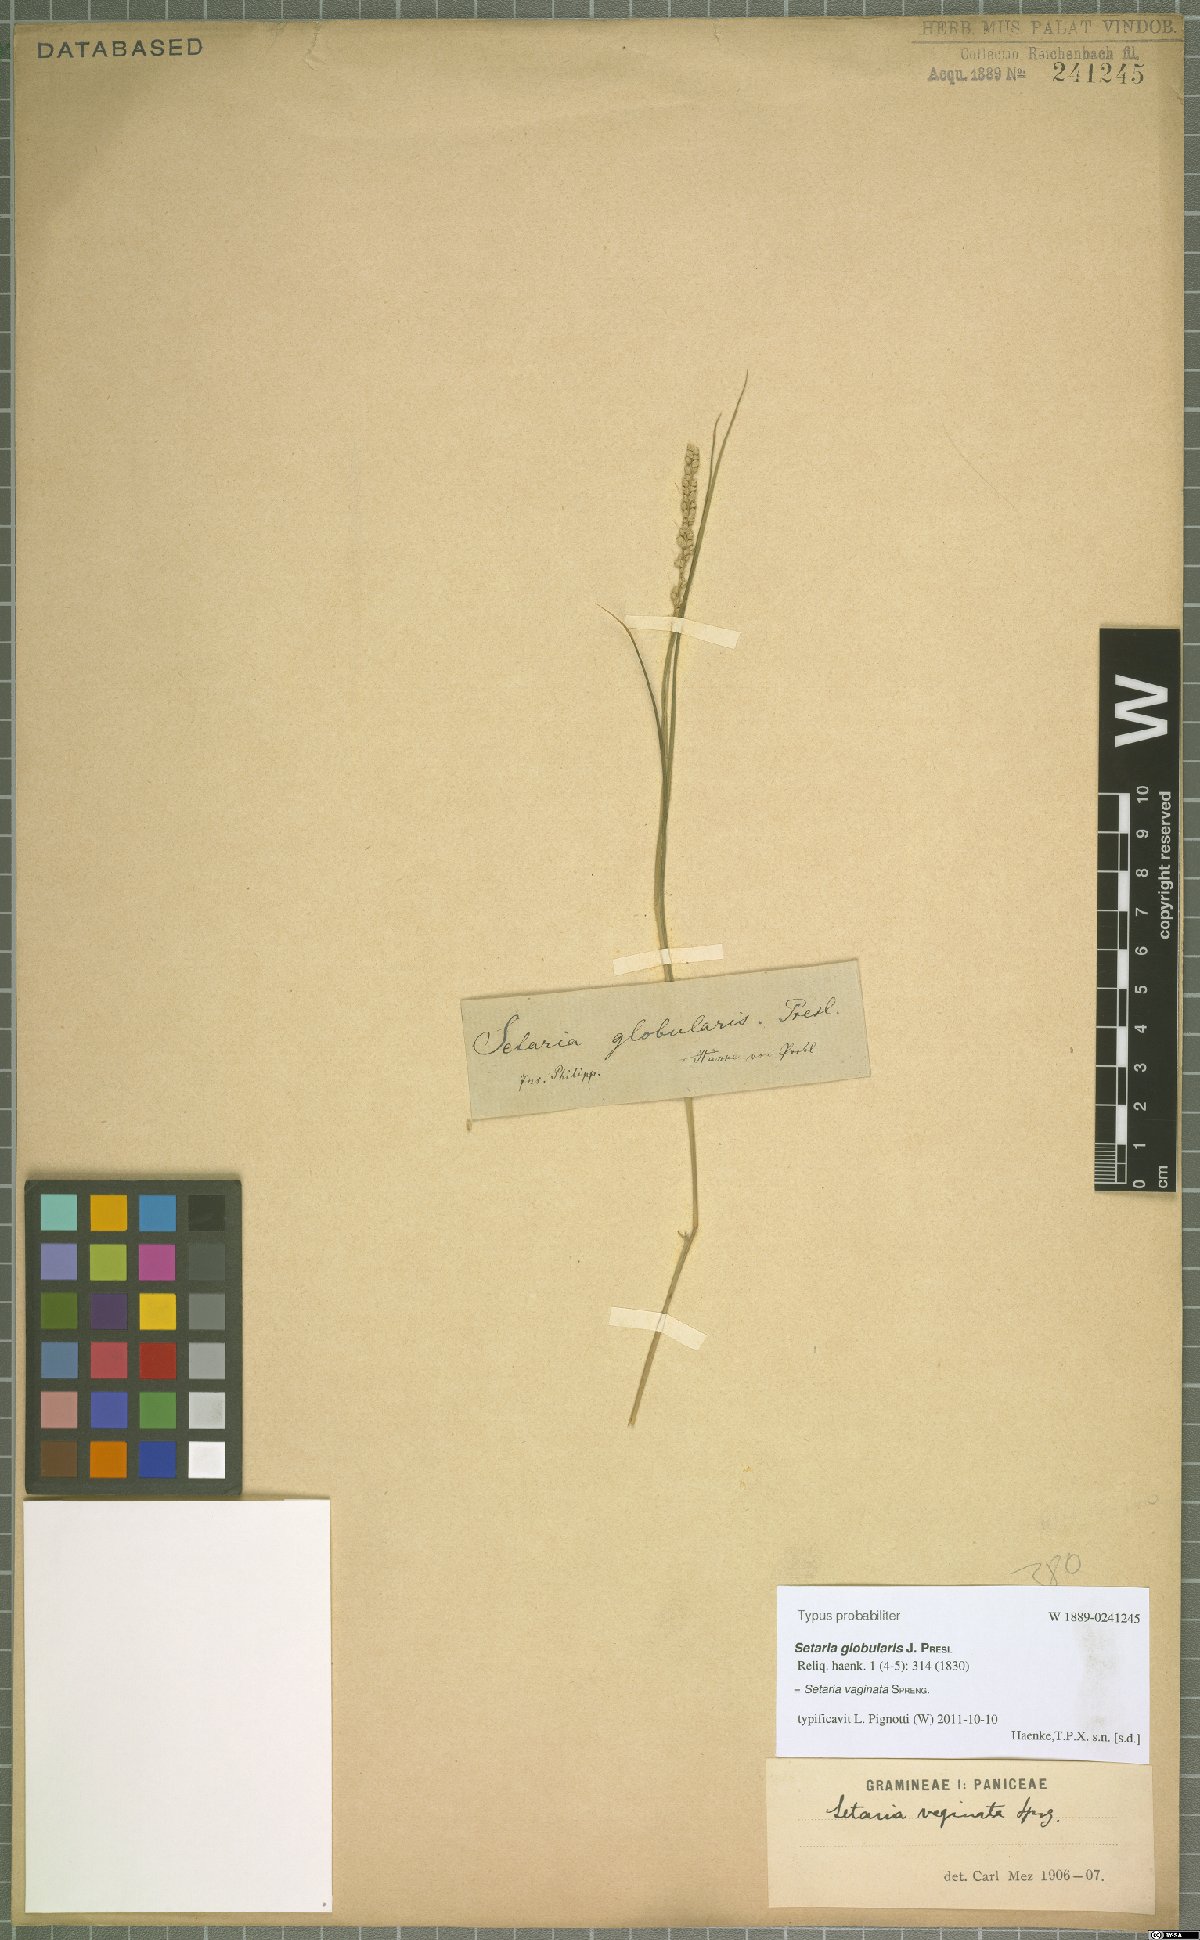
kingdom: Plantae
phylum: Tracheophyta
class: Liliopsida
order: Poales
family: Poaceae
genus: Setaria
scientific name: Setaria vaginata
